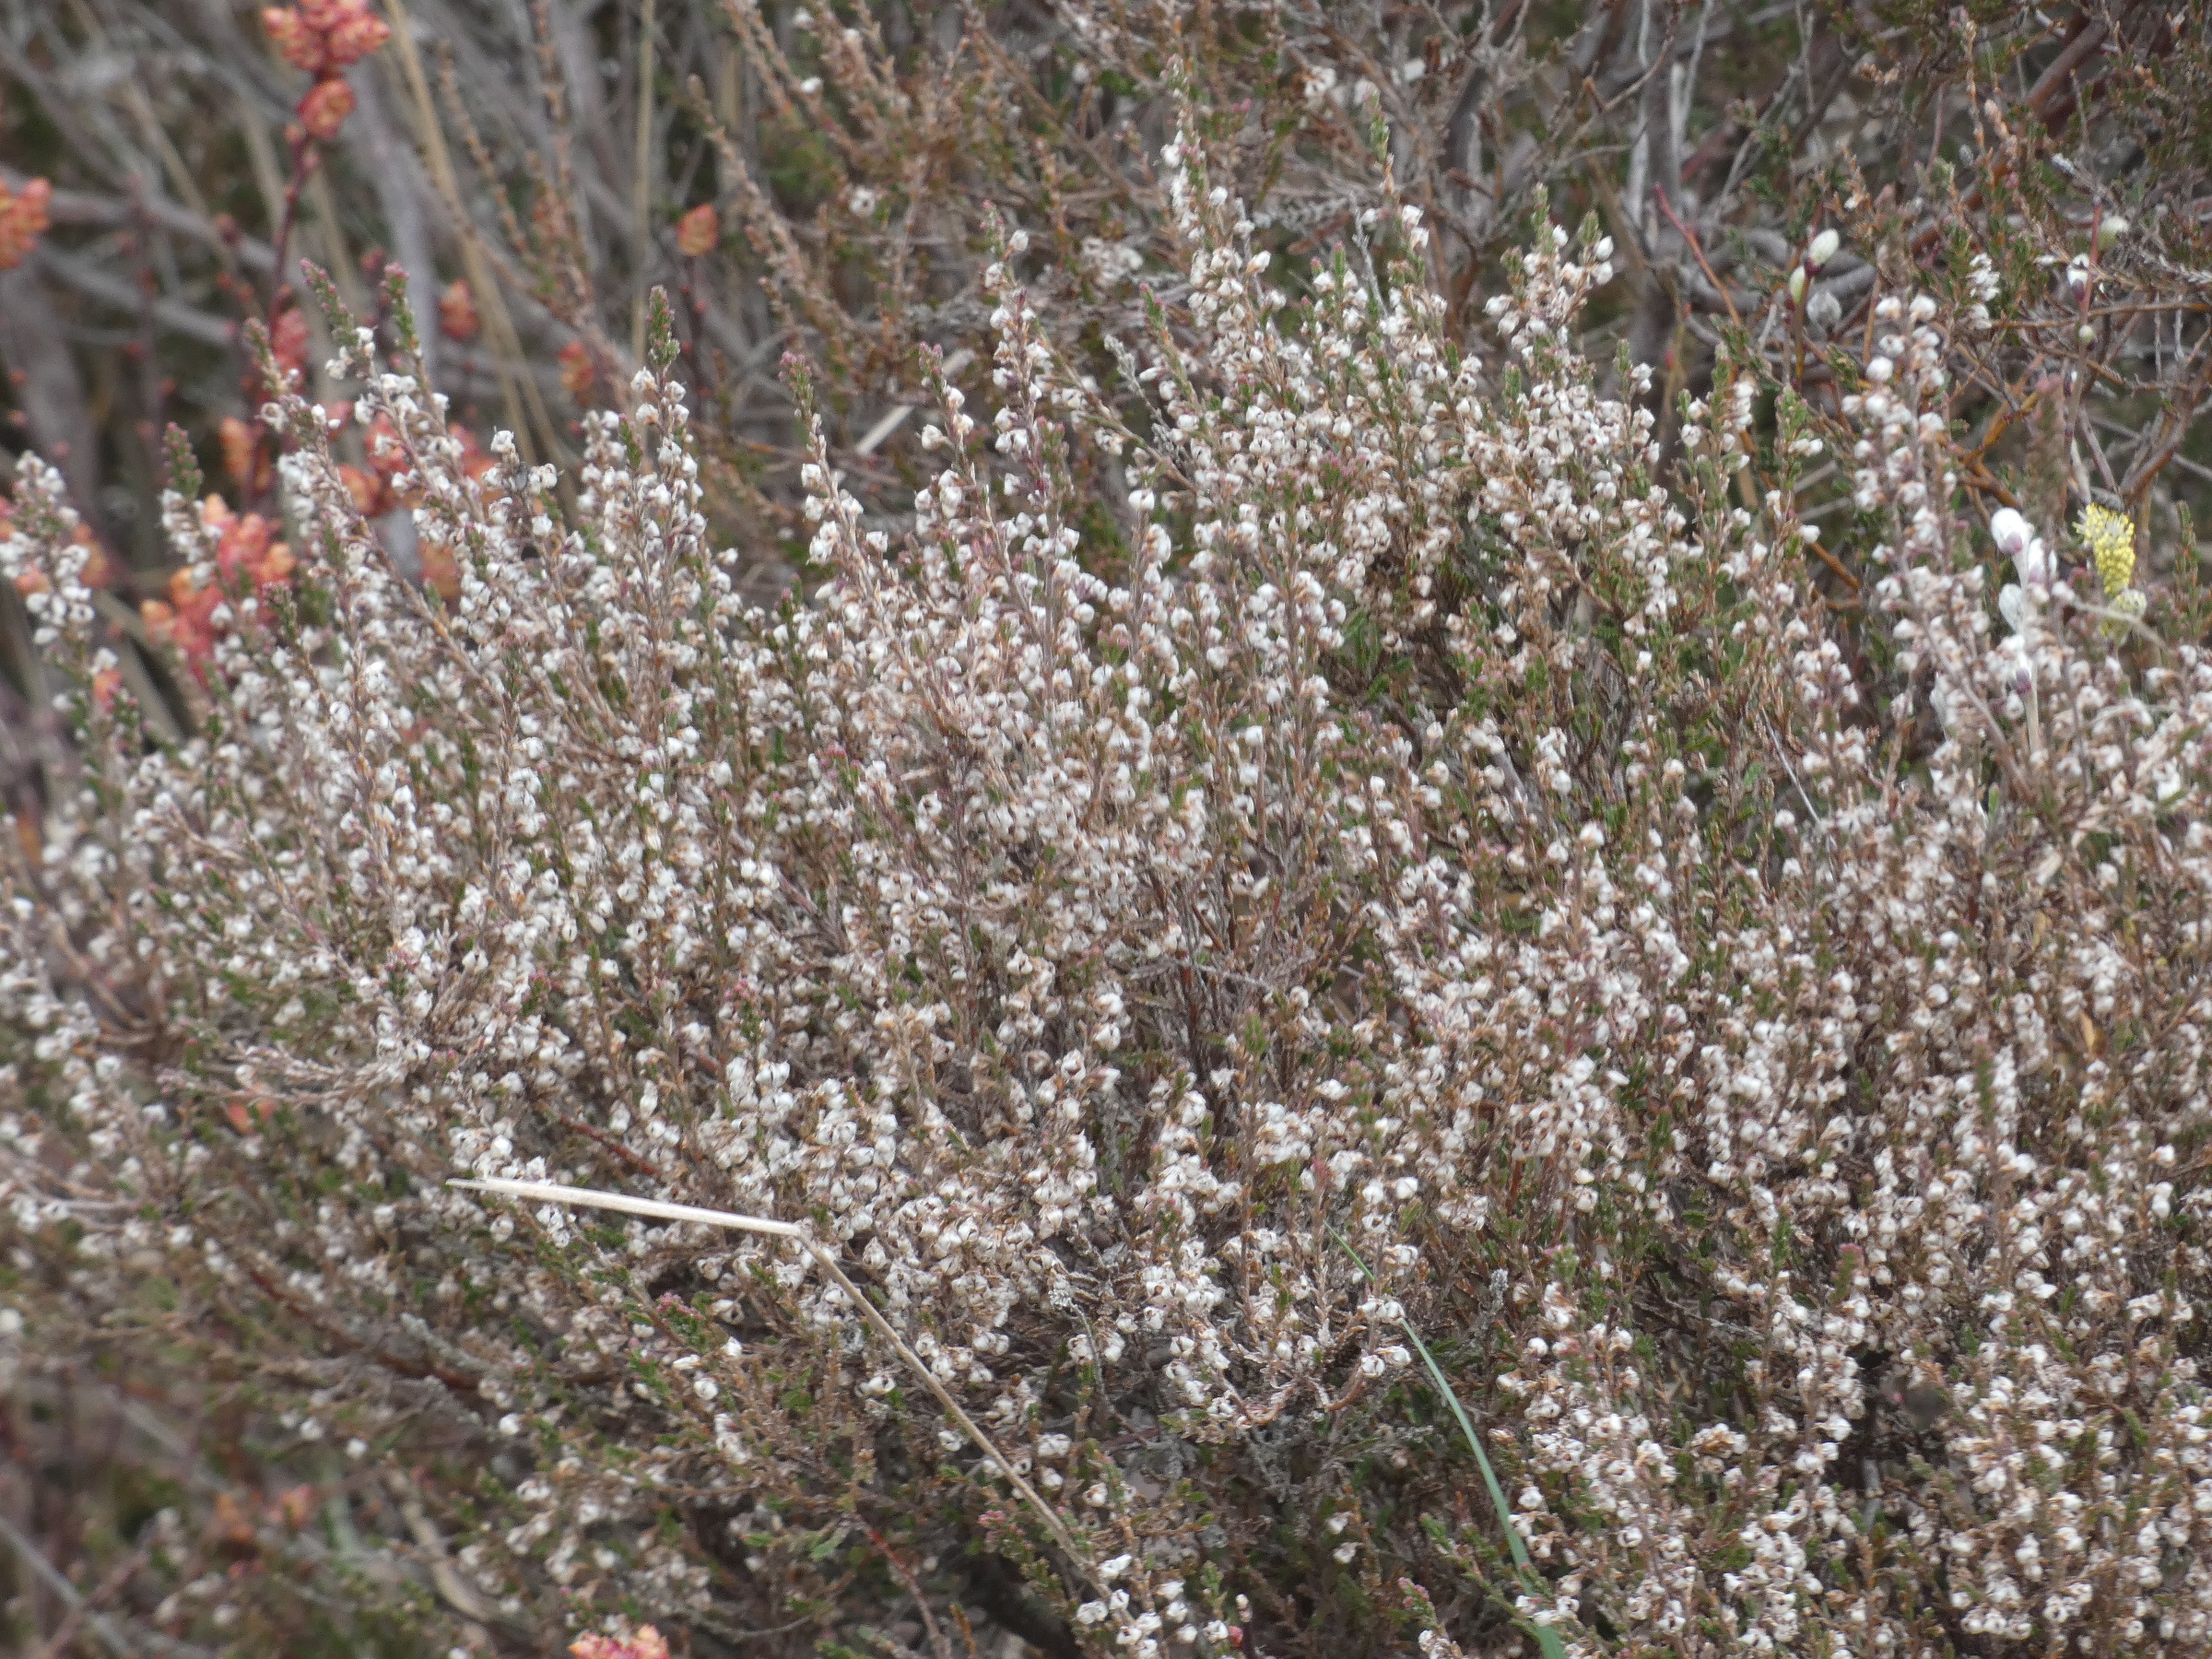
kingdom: Plantae
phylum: Tracheophyta
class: Magnoliopsida
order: Ericales
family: Ericaceae
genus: Calluna
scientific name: Calluna vulgaris
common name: Hedelyng
